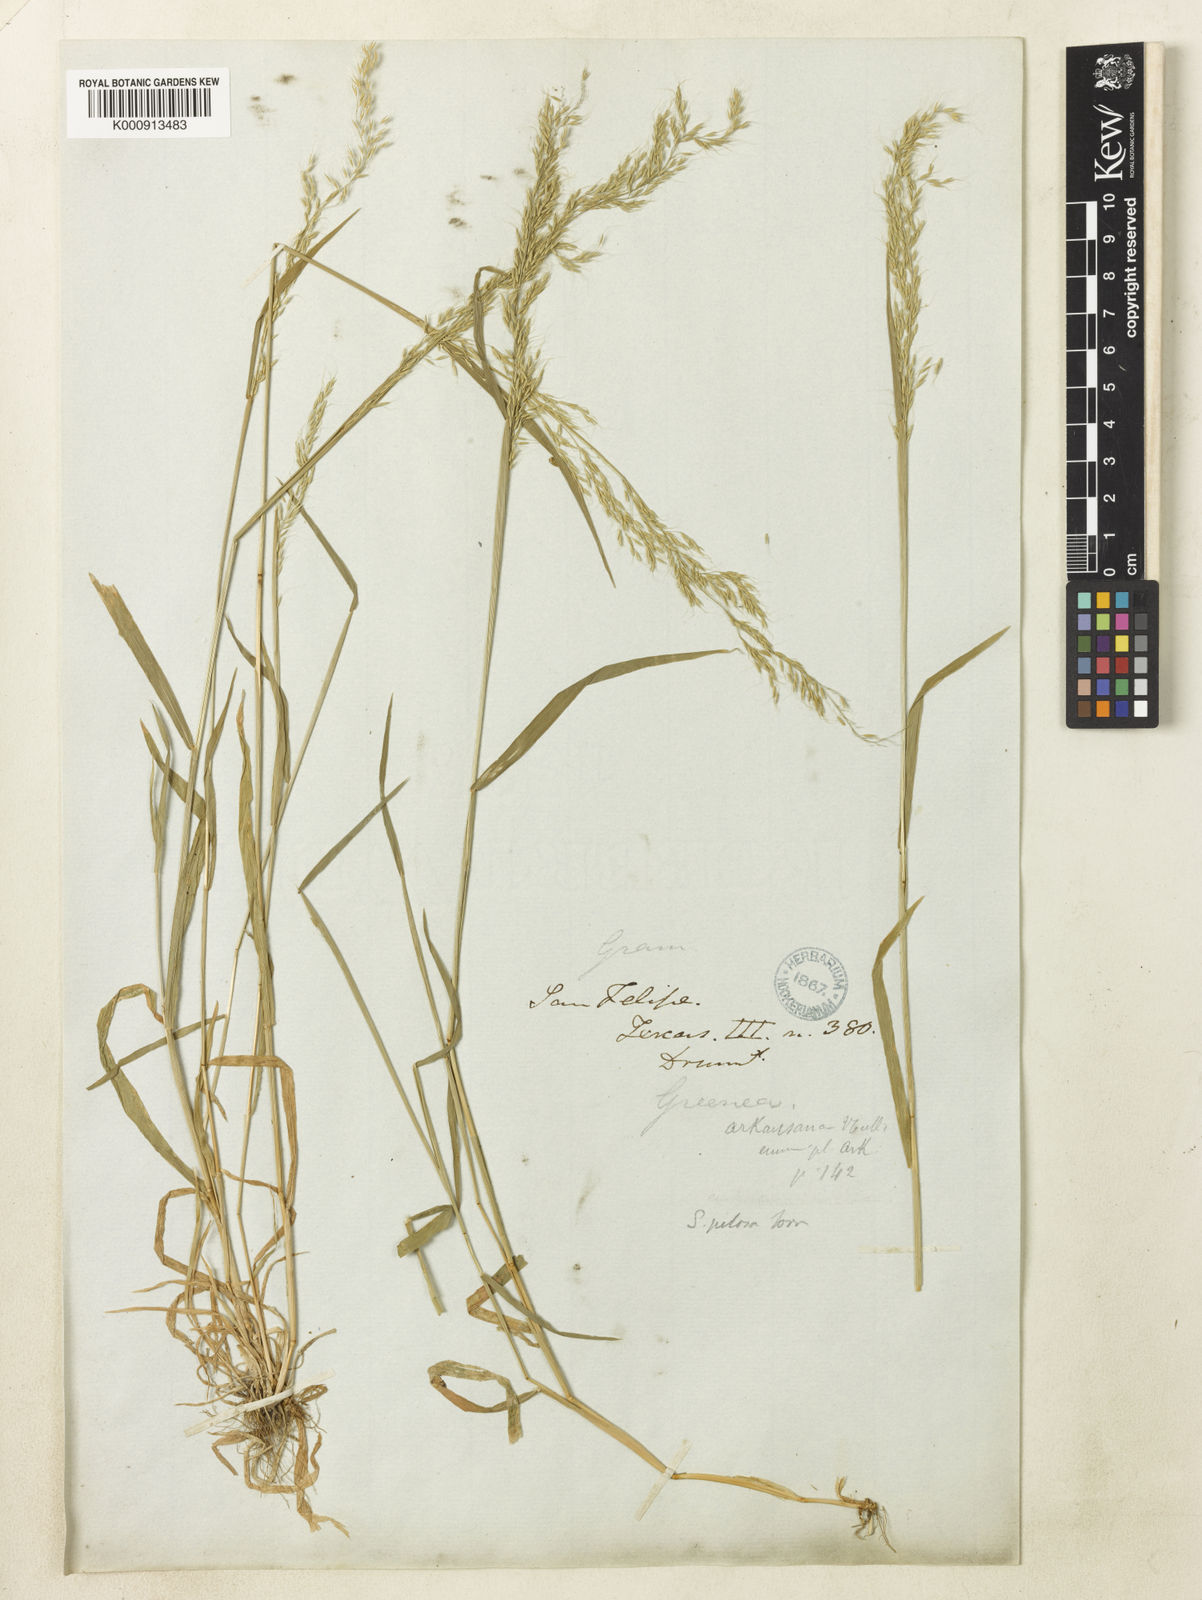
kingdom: Plantae
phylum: Tracheophyta
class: Liliopsida
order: Poales
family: Poaceae
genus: Limnodea
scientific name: Limnodea arkansana
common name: Ozark-grass
